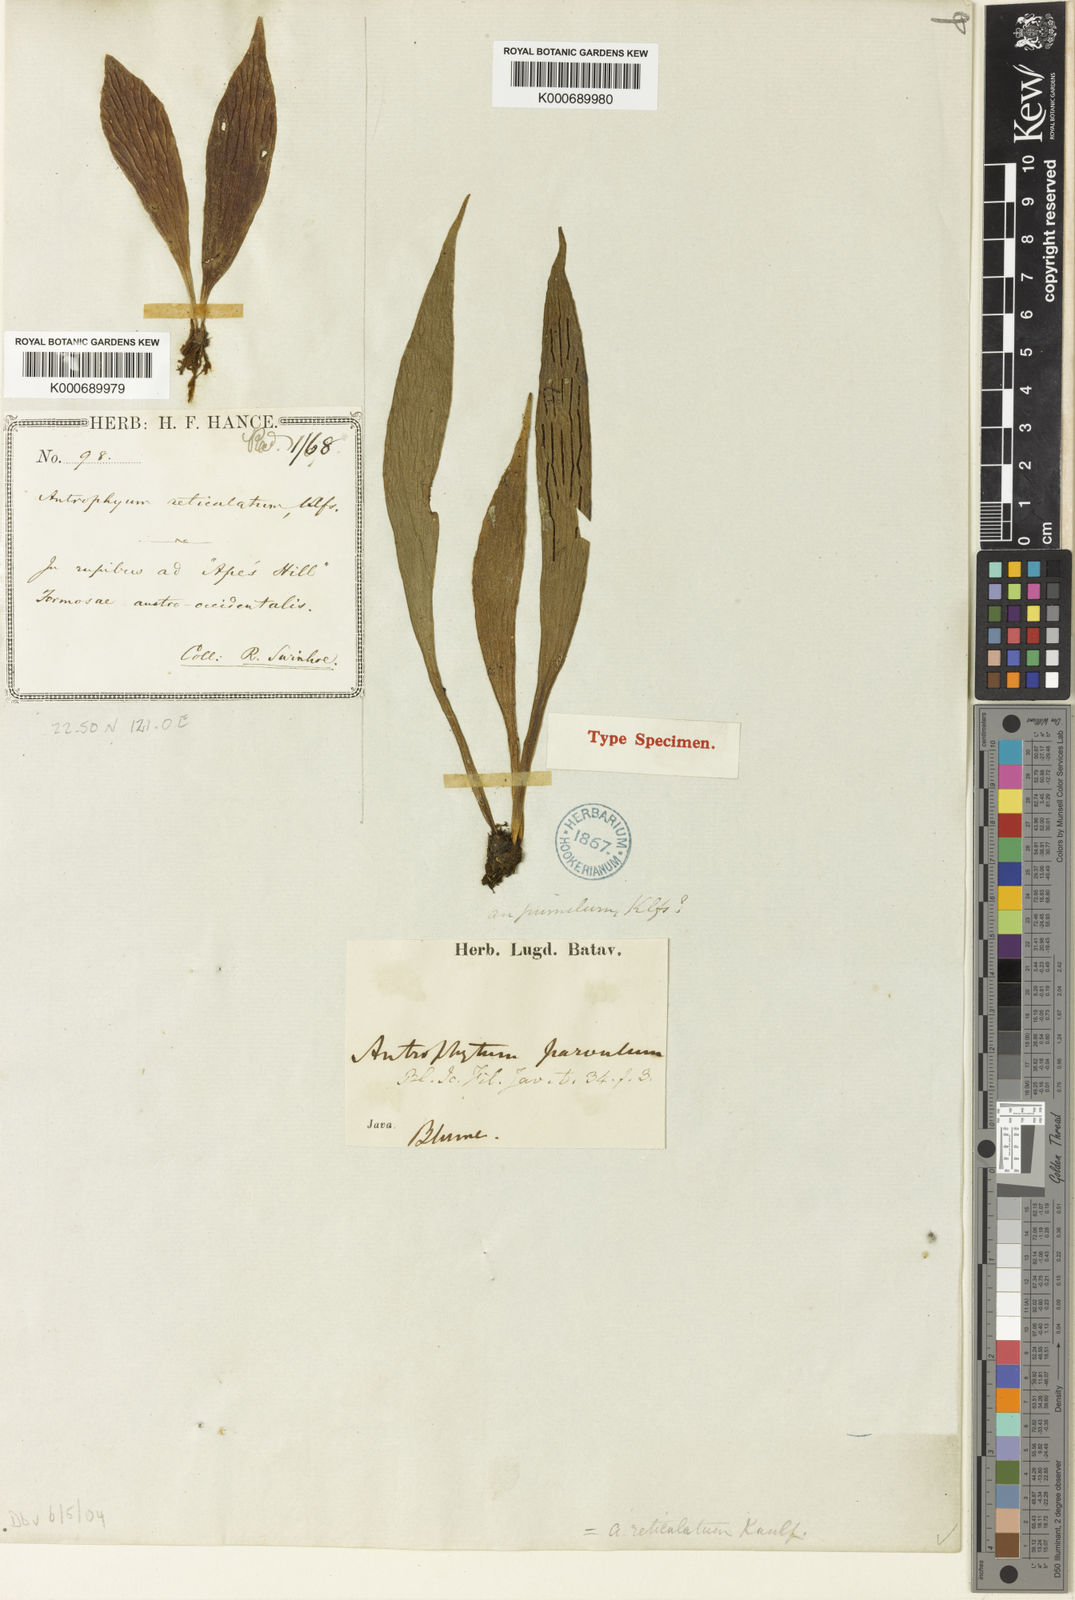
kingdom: Plantae
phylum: Tracheophyta
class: Polypodiopsida
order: Polypodiales
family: Pteridaceae
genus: Antrophyum
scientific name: Antrophyum parvulum
